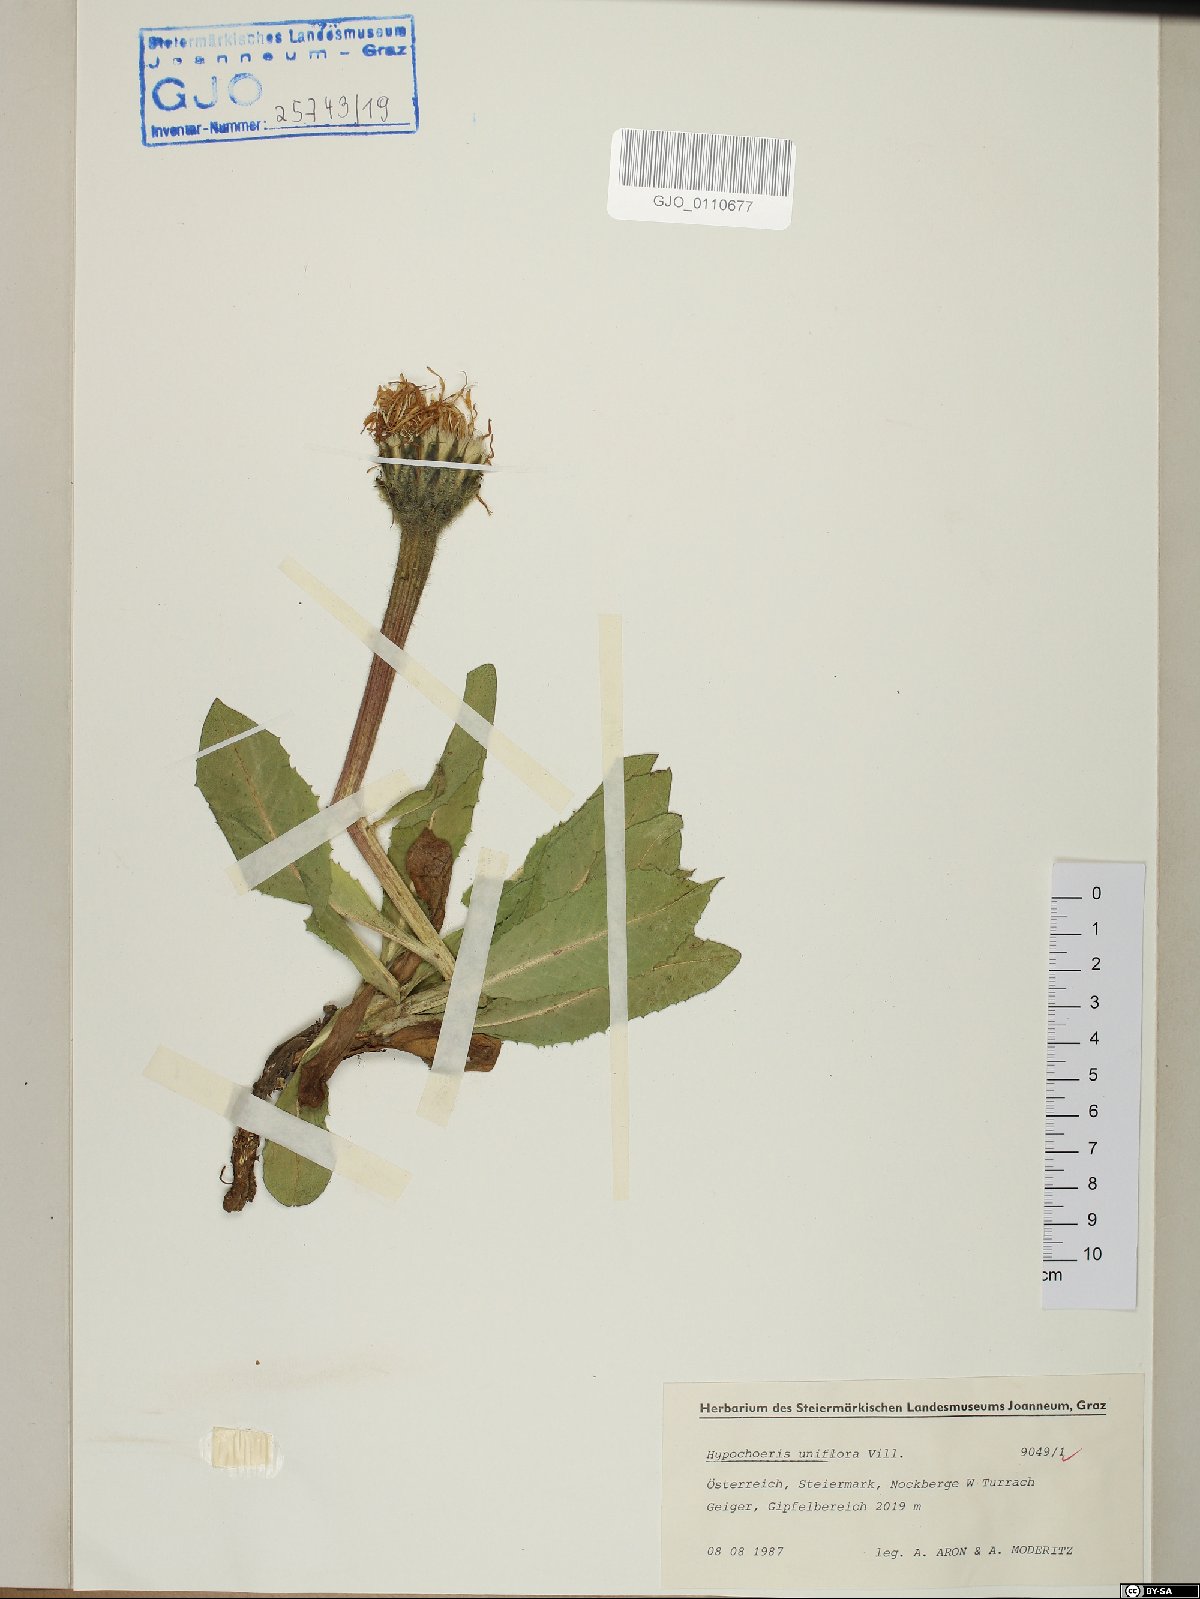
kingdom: Plantae
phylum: Tracheophyta
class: Magnoliopsida
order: Asterales
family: Asteraceae
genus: Trommsdorffia
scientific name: Trommsdorffia uniflora
